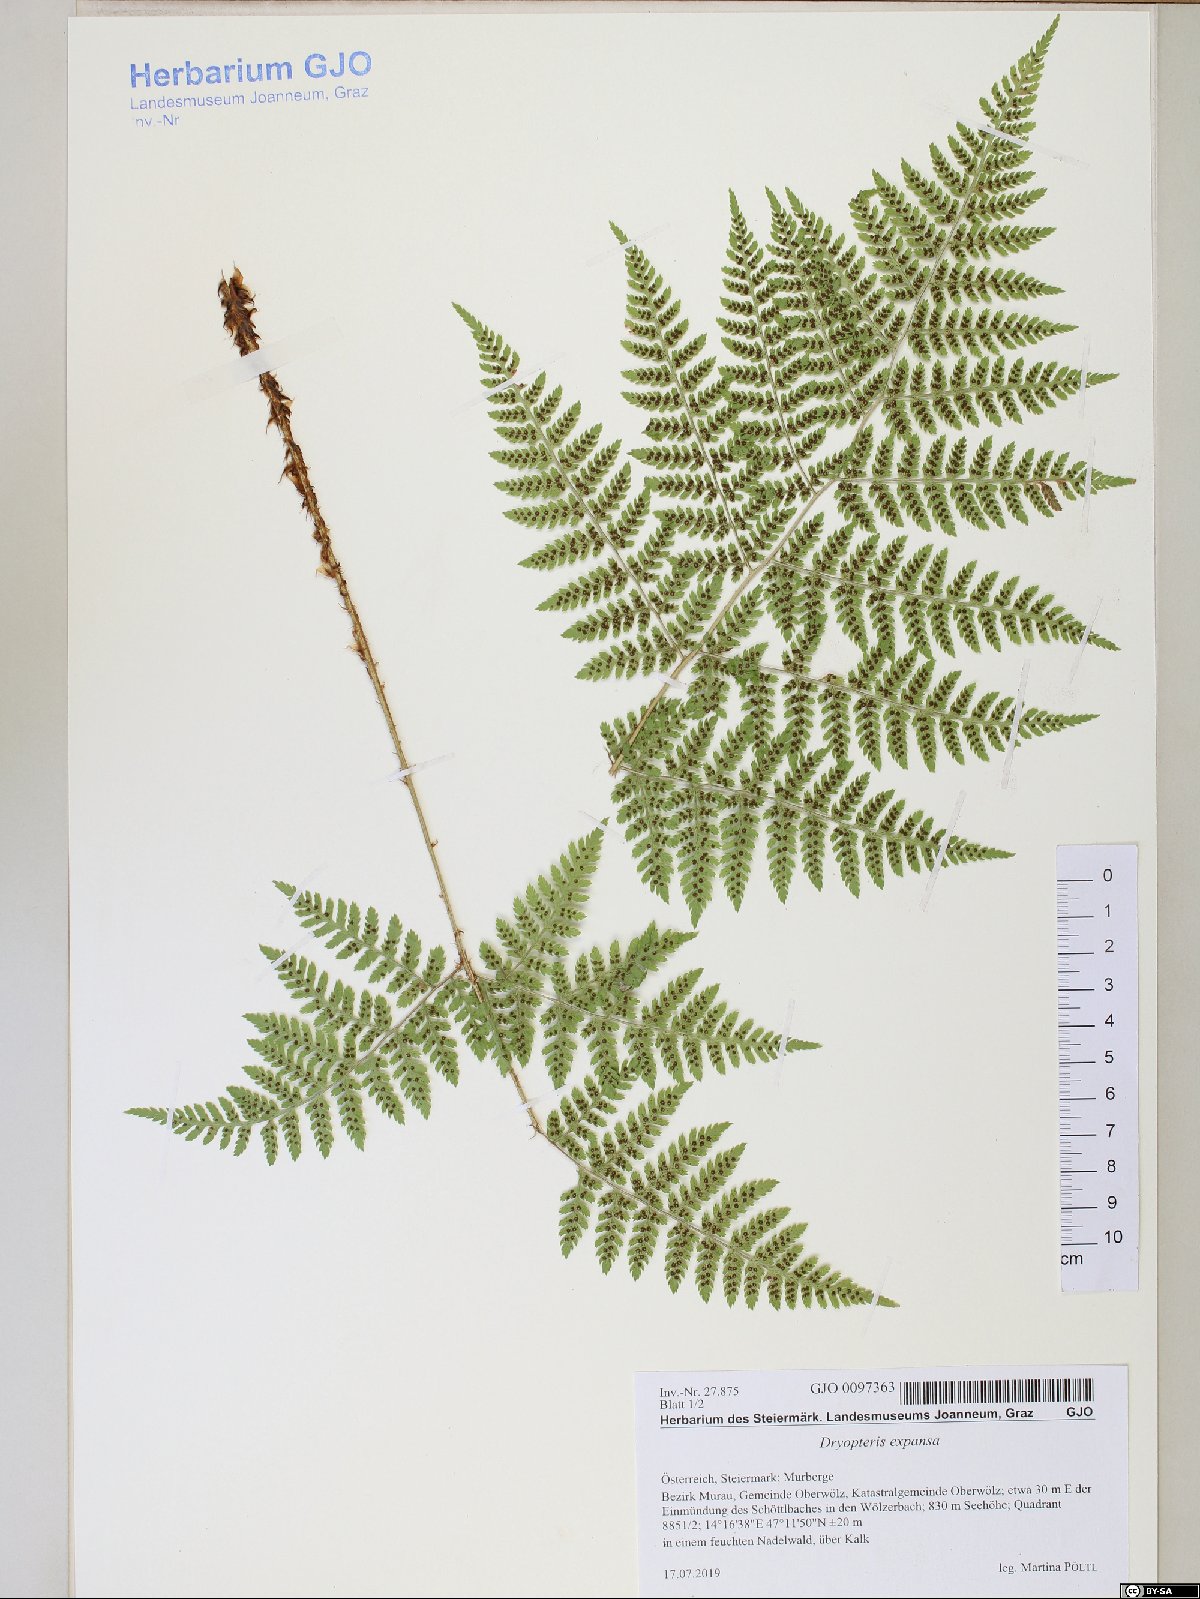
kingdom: Plantae
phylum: Tracheophyta
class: Polypodiopsida
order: Polypodiales
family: Dryopteridaceae
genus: Dryopteris
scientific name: Dryopteris expansa
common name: Northern buckler fern
